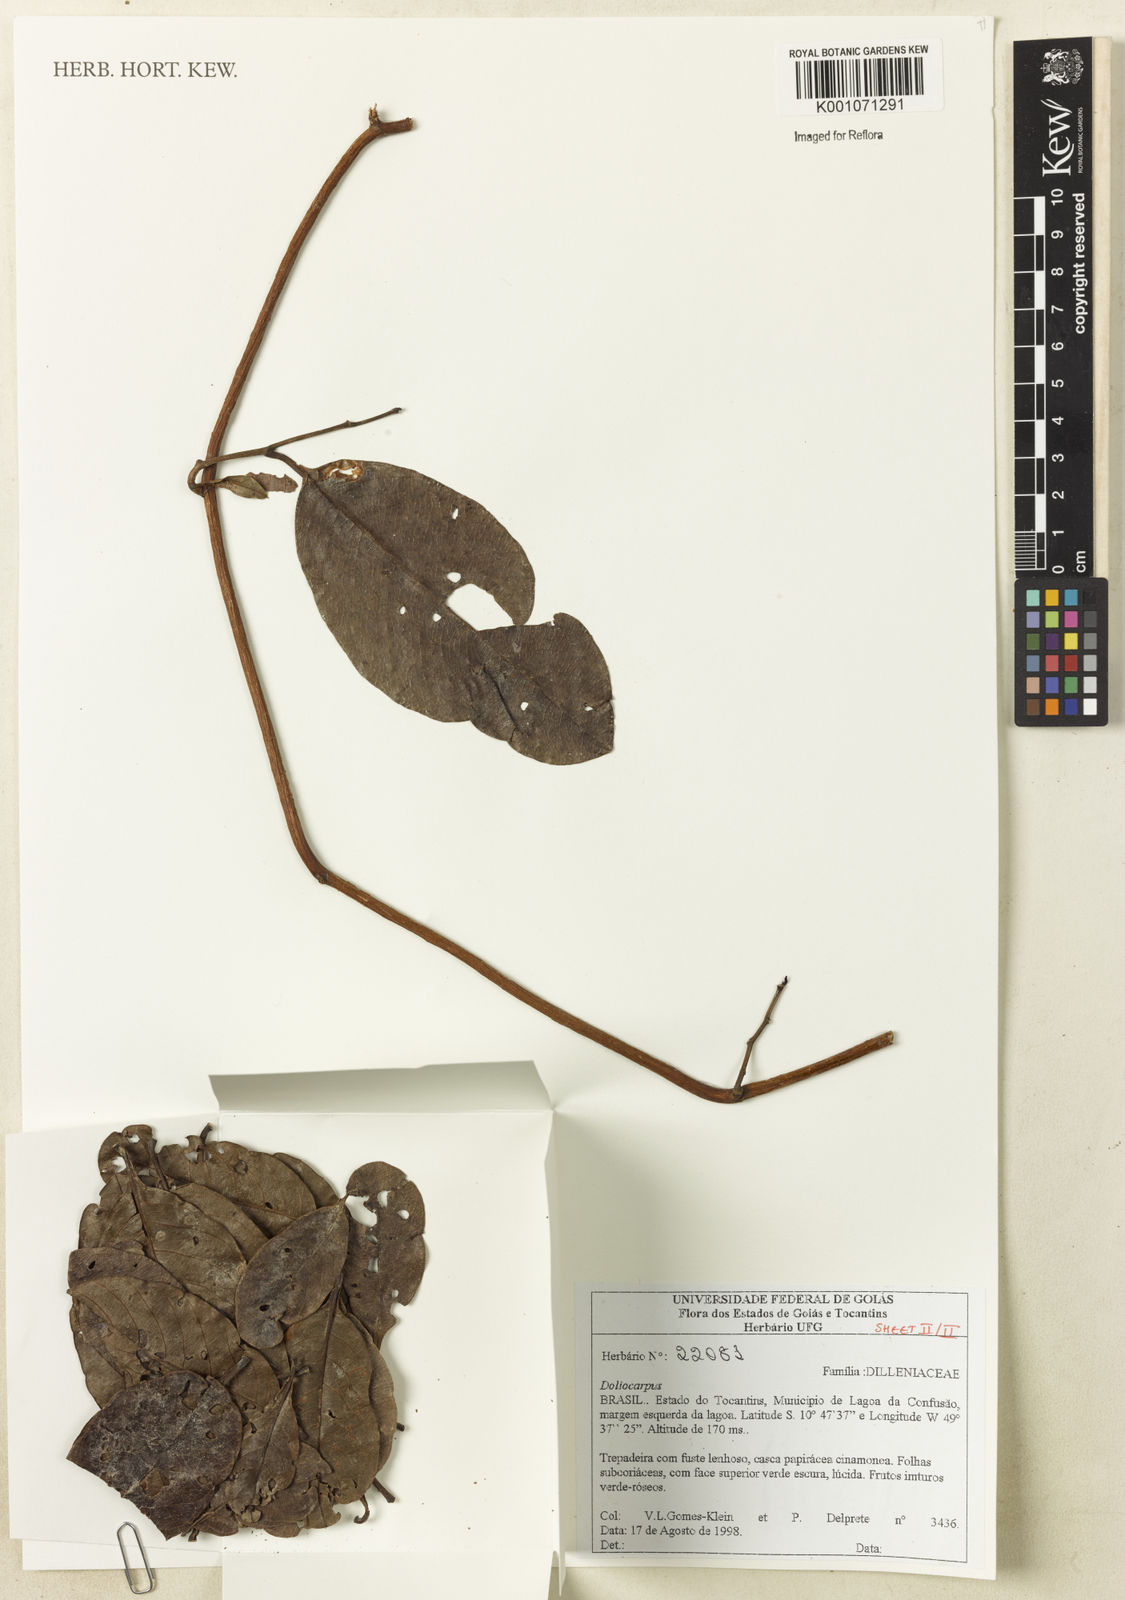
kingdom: Plantae
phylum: Tracheophyta
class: Magnoliopsida
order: Dilleniales
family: Dilleniaceae
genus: Doliocarpus
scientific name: Doliocarpus
